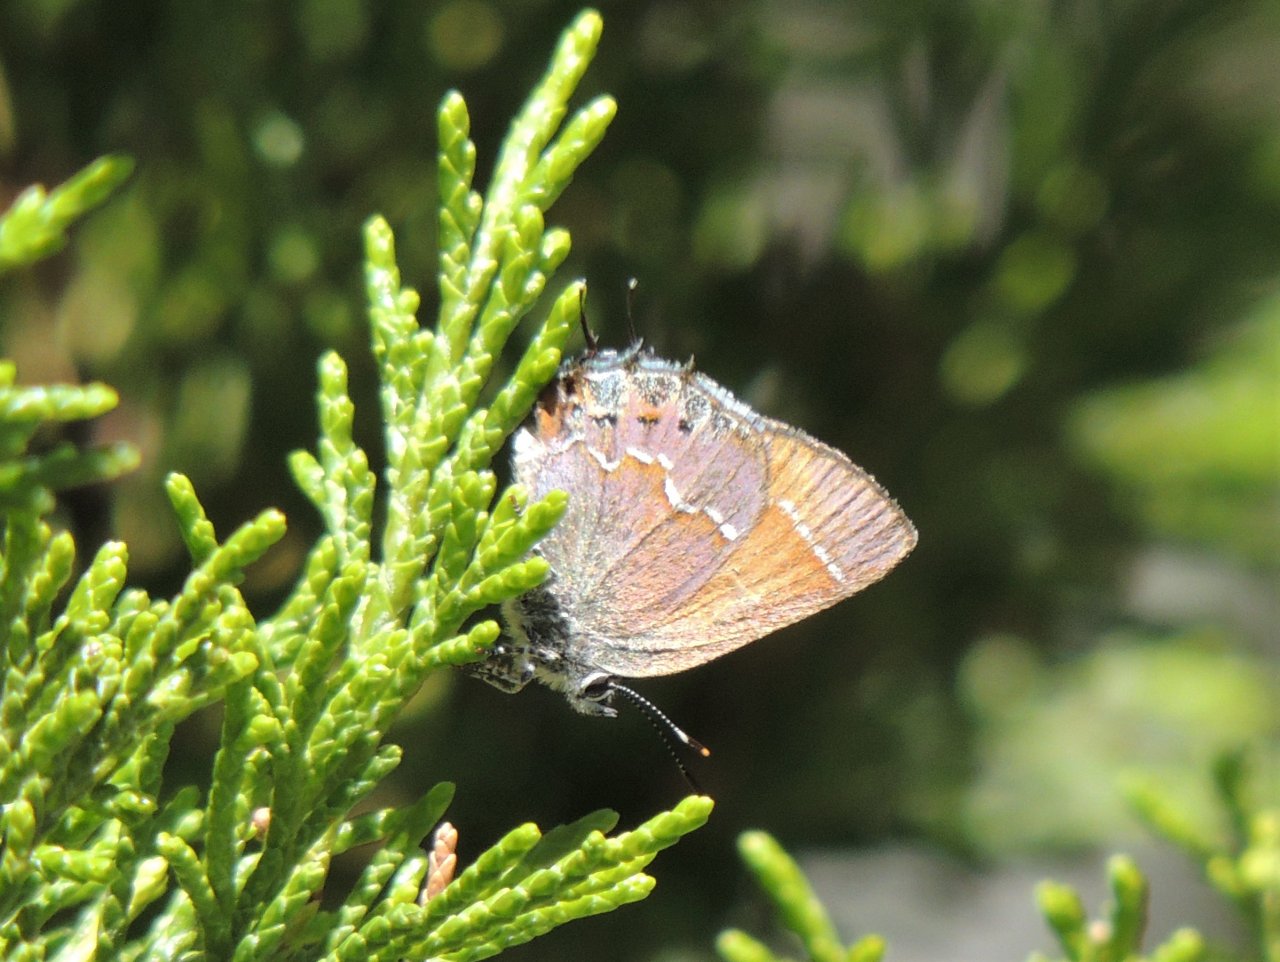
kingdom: Animalia
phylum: Arthropoda
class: Insecta
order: Lepidoptera
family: Lycaenidae
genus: Mitoura
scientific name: Mitoura gryneus
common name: Juniper Hairstreak
